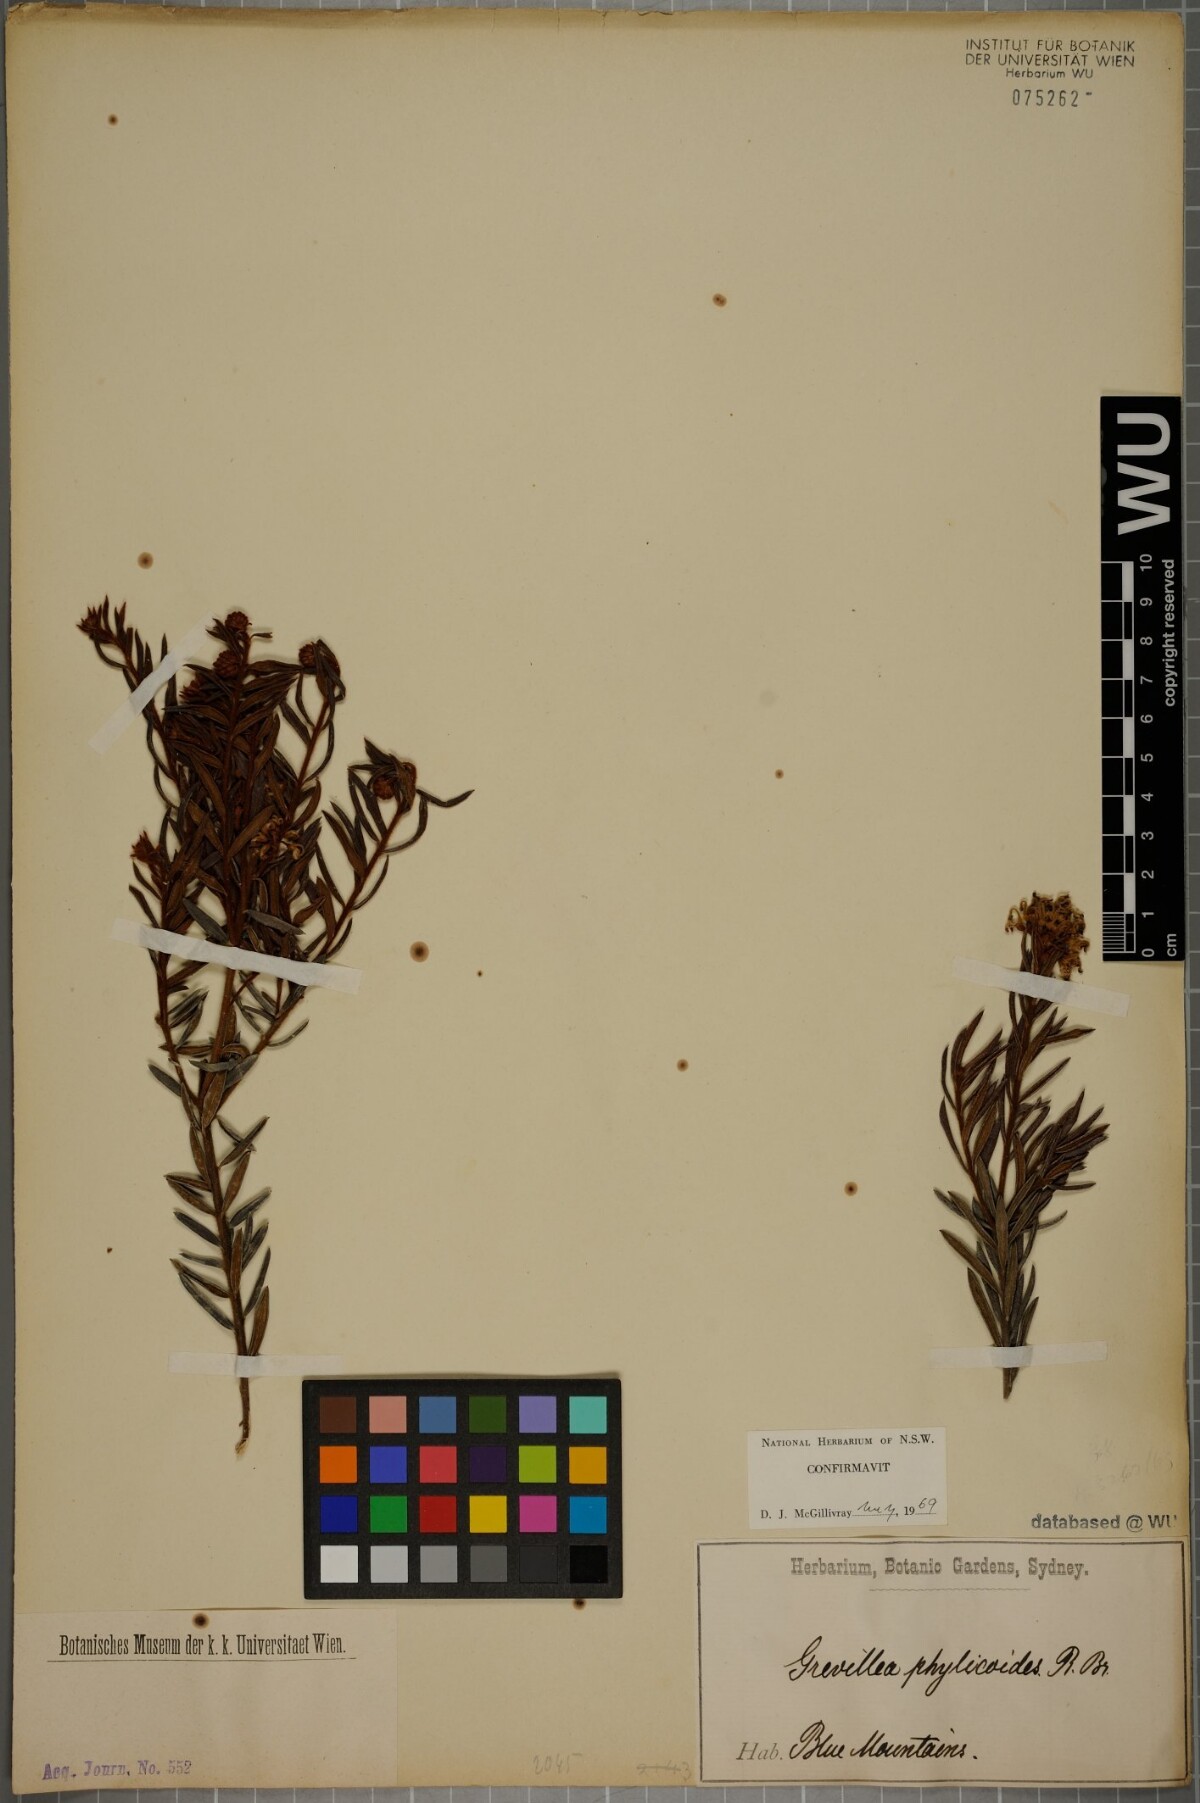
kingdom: Plantae
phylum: Tracheophyta
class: Magnoliopsida
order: Proteales
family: Proteaceae
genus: Grevillea
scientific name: Grevillea phylicoides
